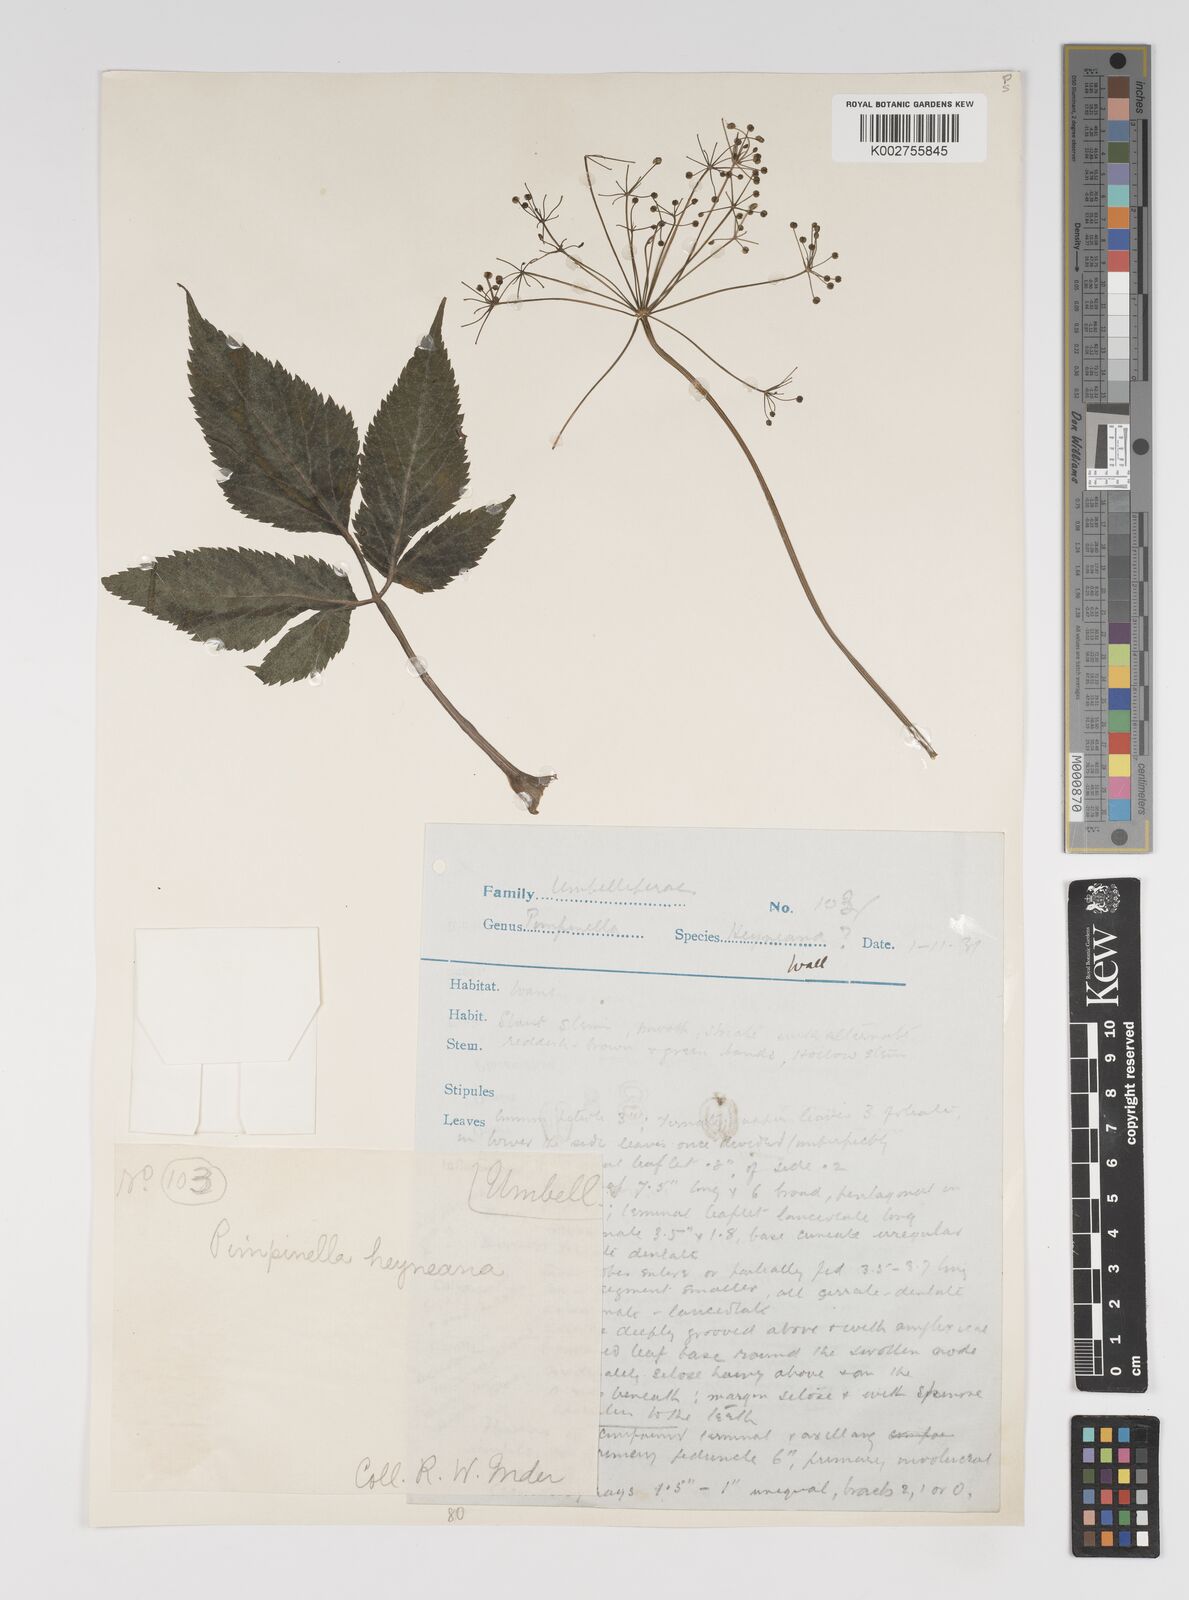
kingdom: Plantae
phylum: Tracheophyta
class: Magnoliopsida
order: Apiales
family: Apiaceae
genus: Pimpinella
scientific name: Pimpinella heyneana
